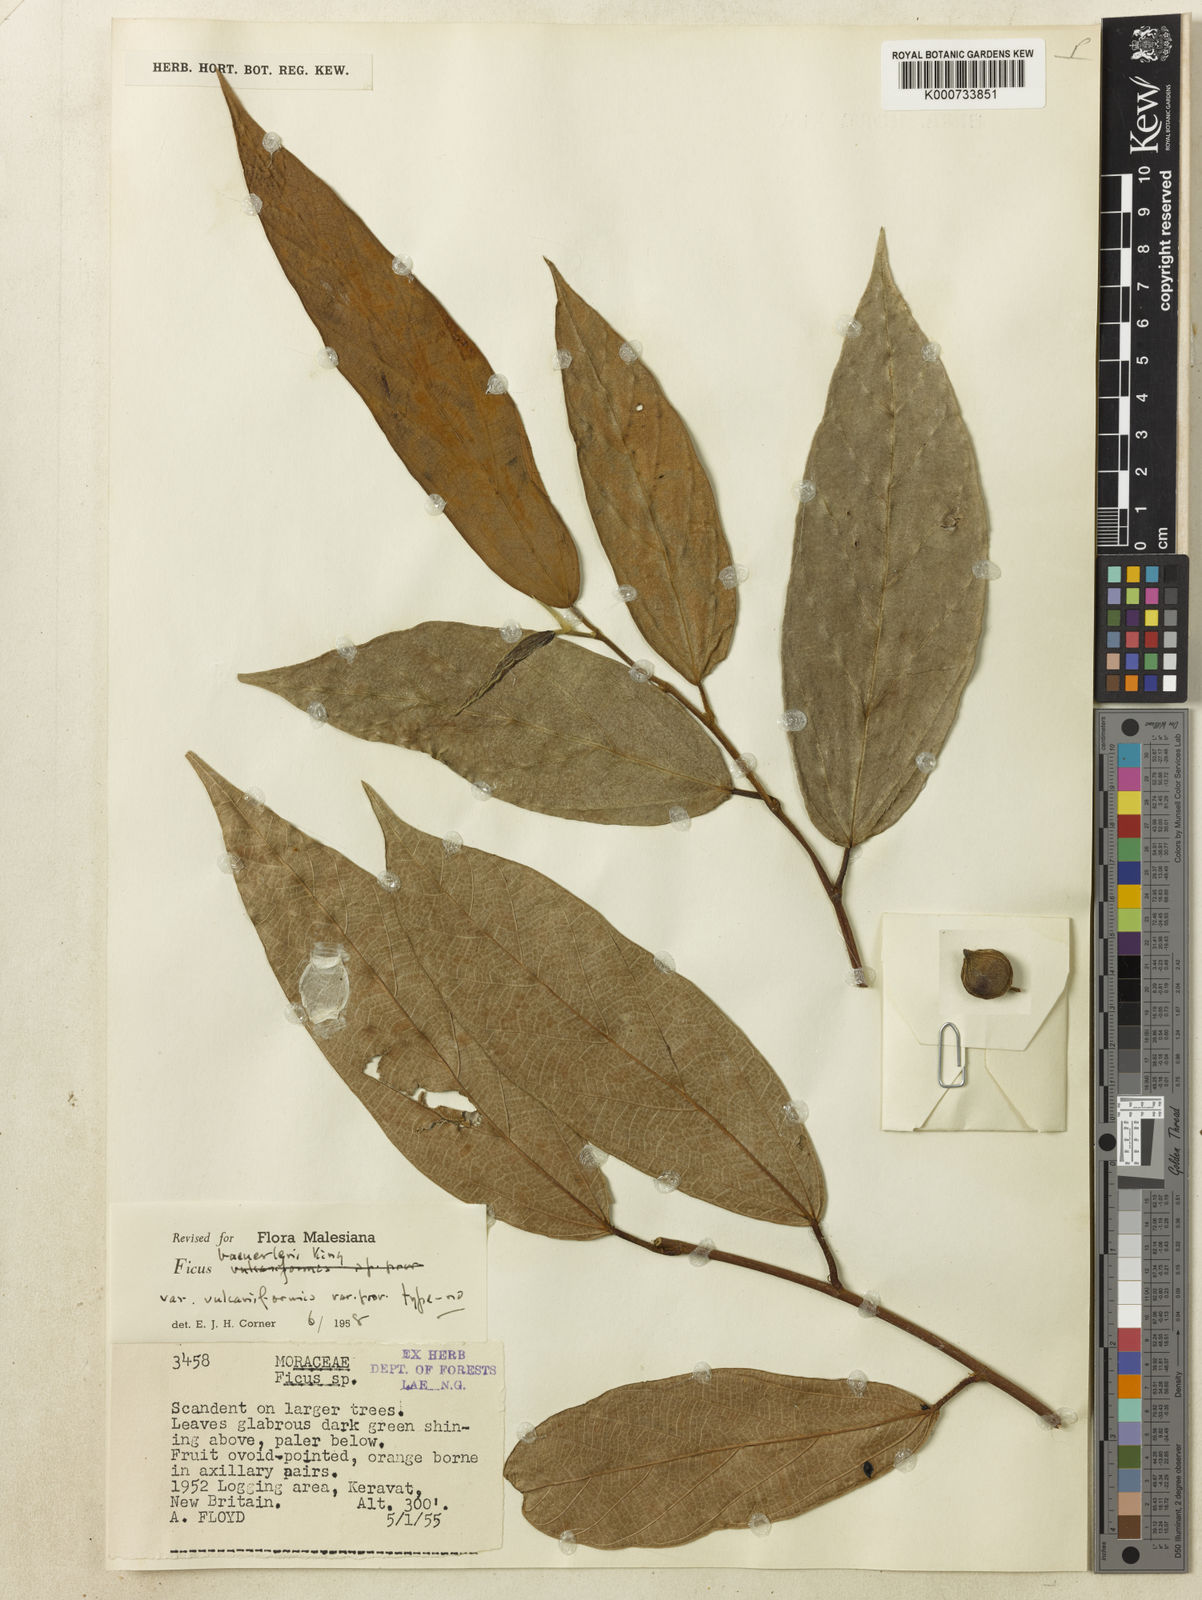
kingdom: Plantae
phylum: Tracheophyta
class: Magnoliopsida
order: Rosales
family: Moraceae
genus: Ficus
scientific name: Ficus baeuerlenii
